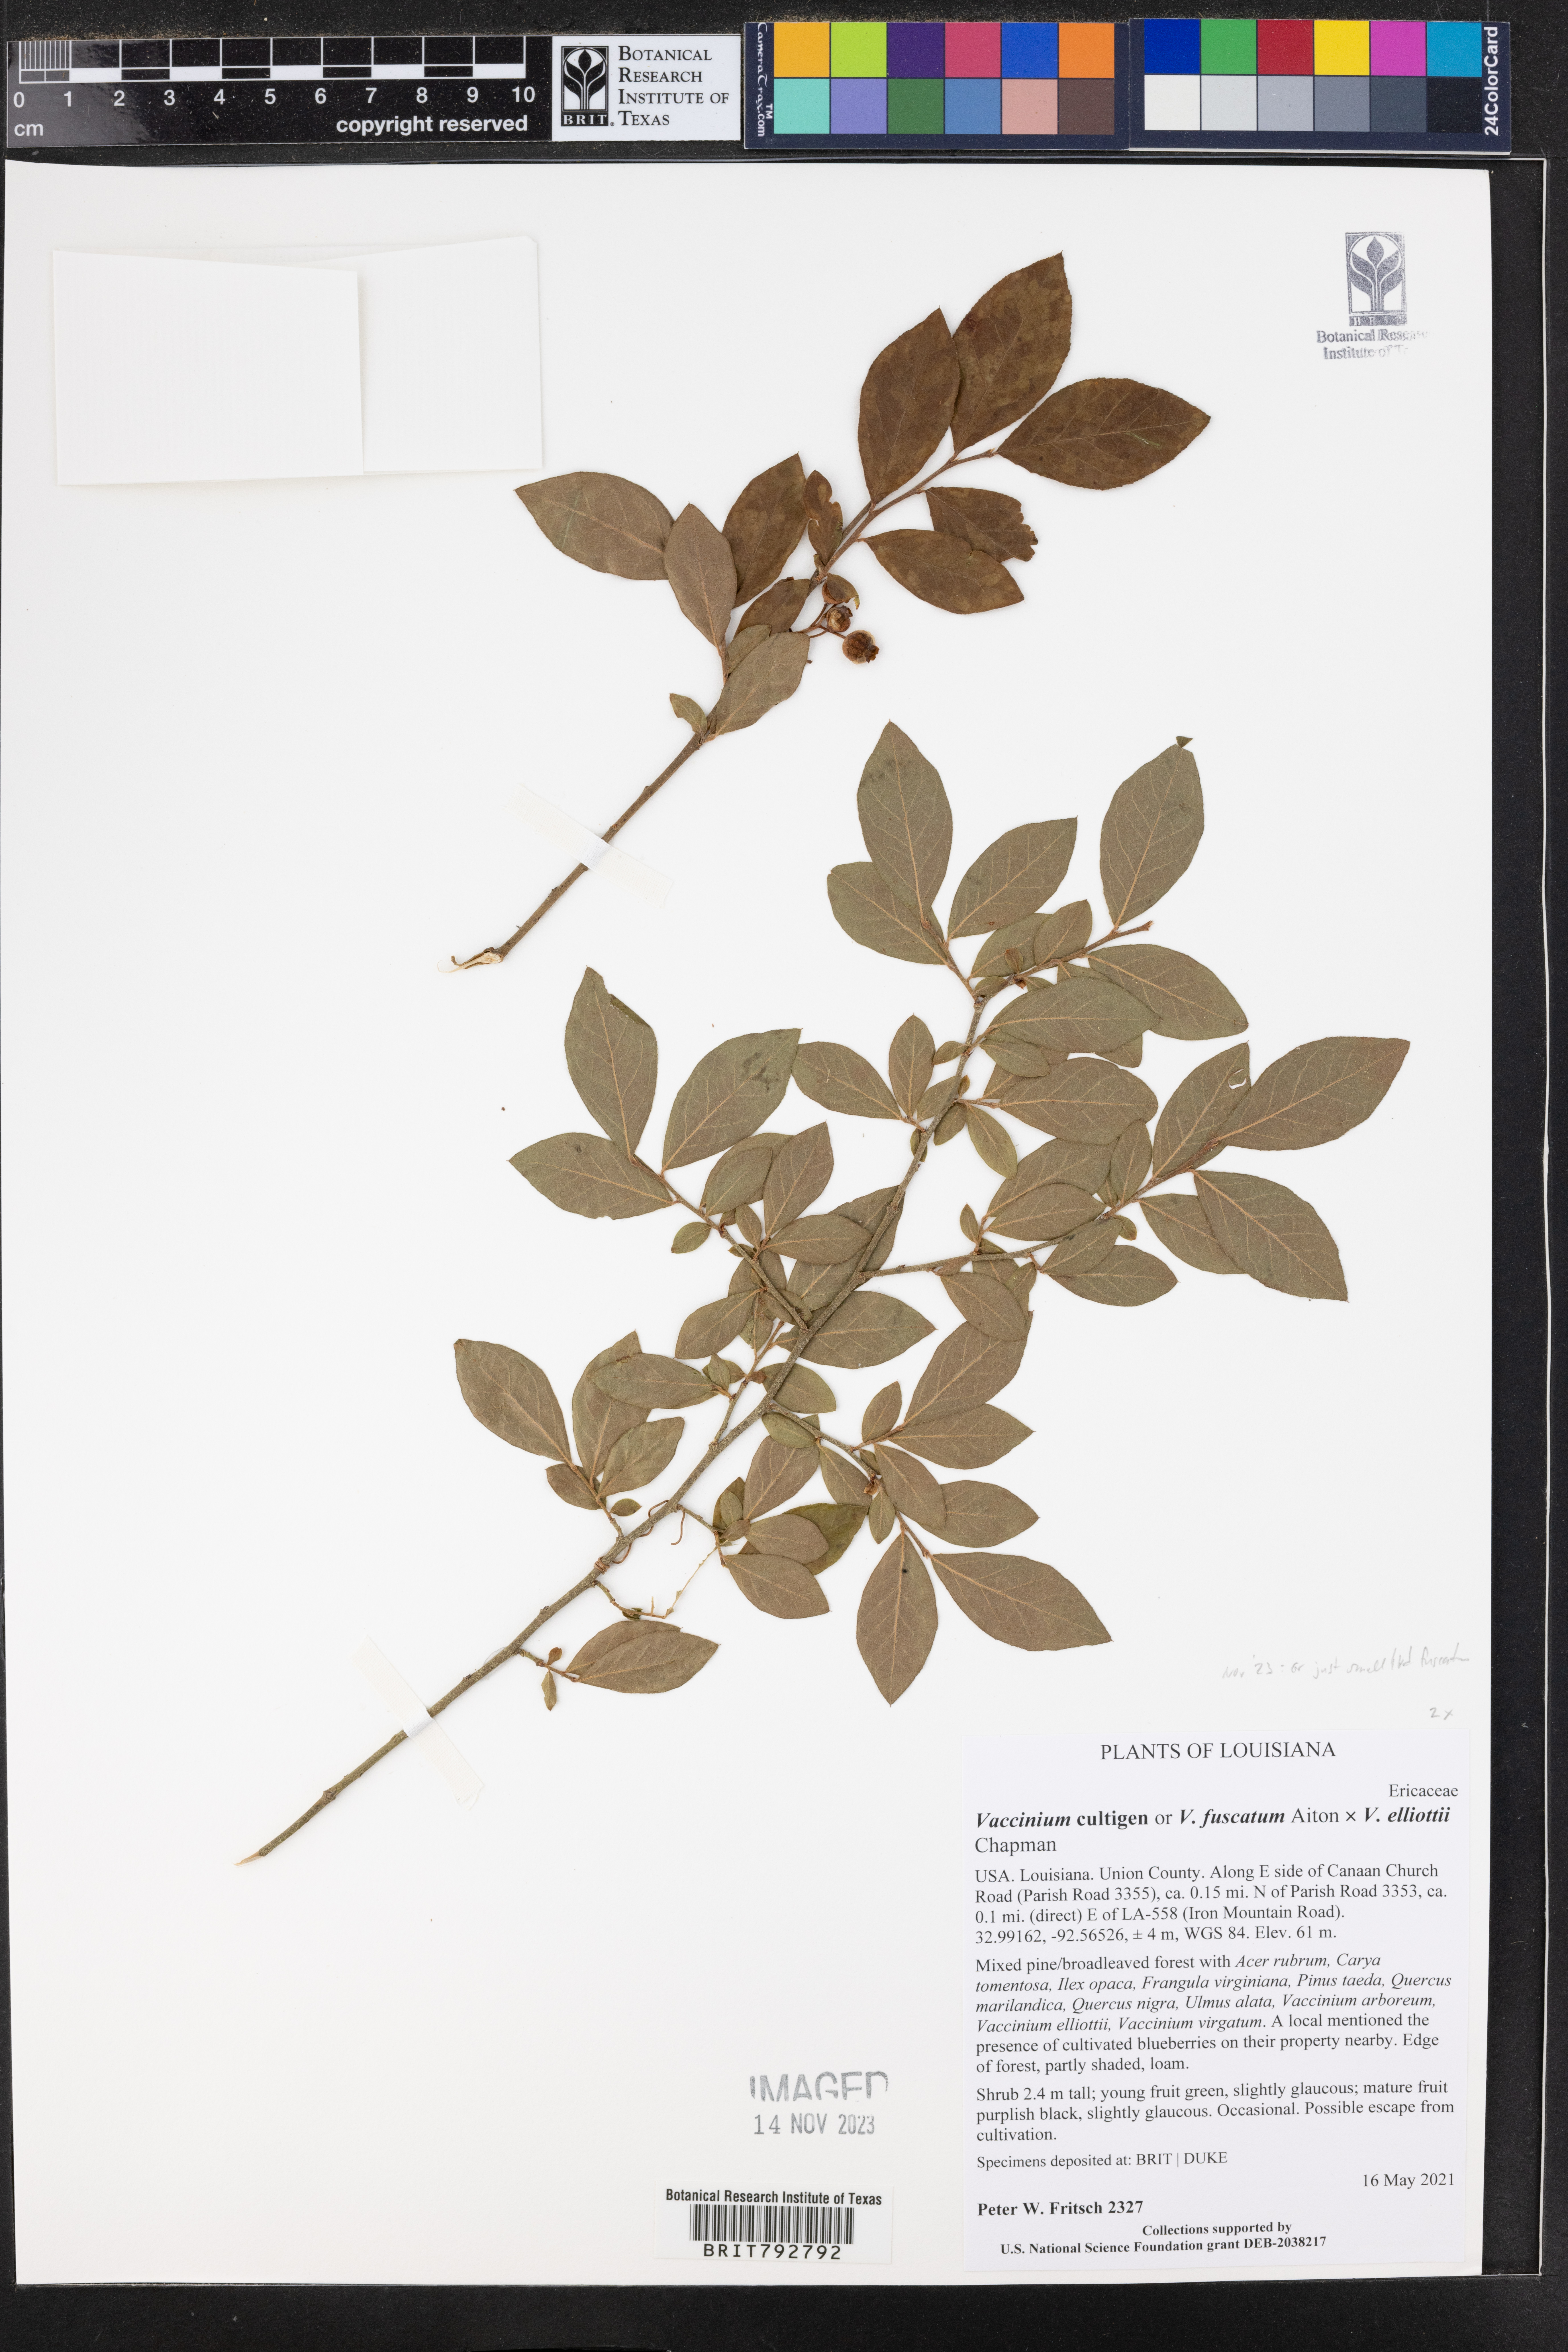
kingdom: Plantae
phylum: Tracheophyta
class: Magnoliopsida
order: Ericales
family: Ericaceae
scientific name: Ericaceae
